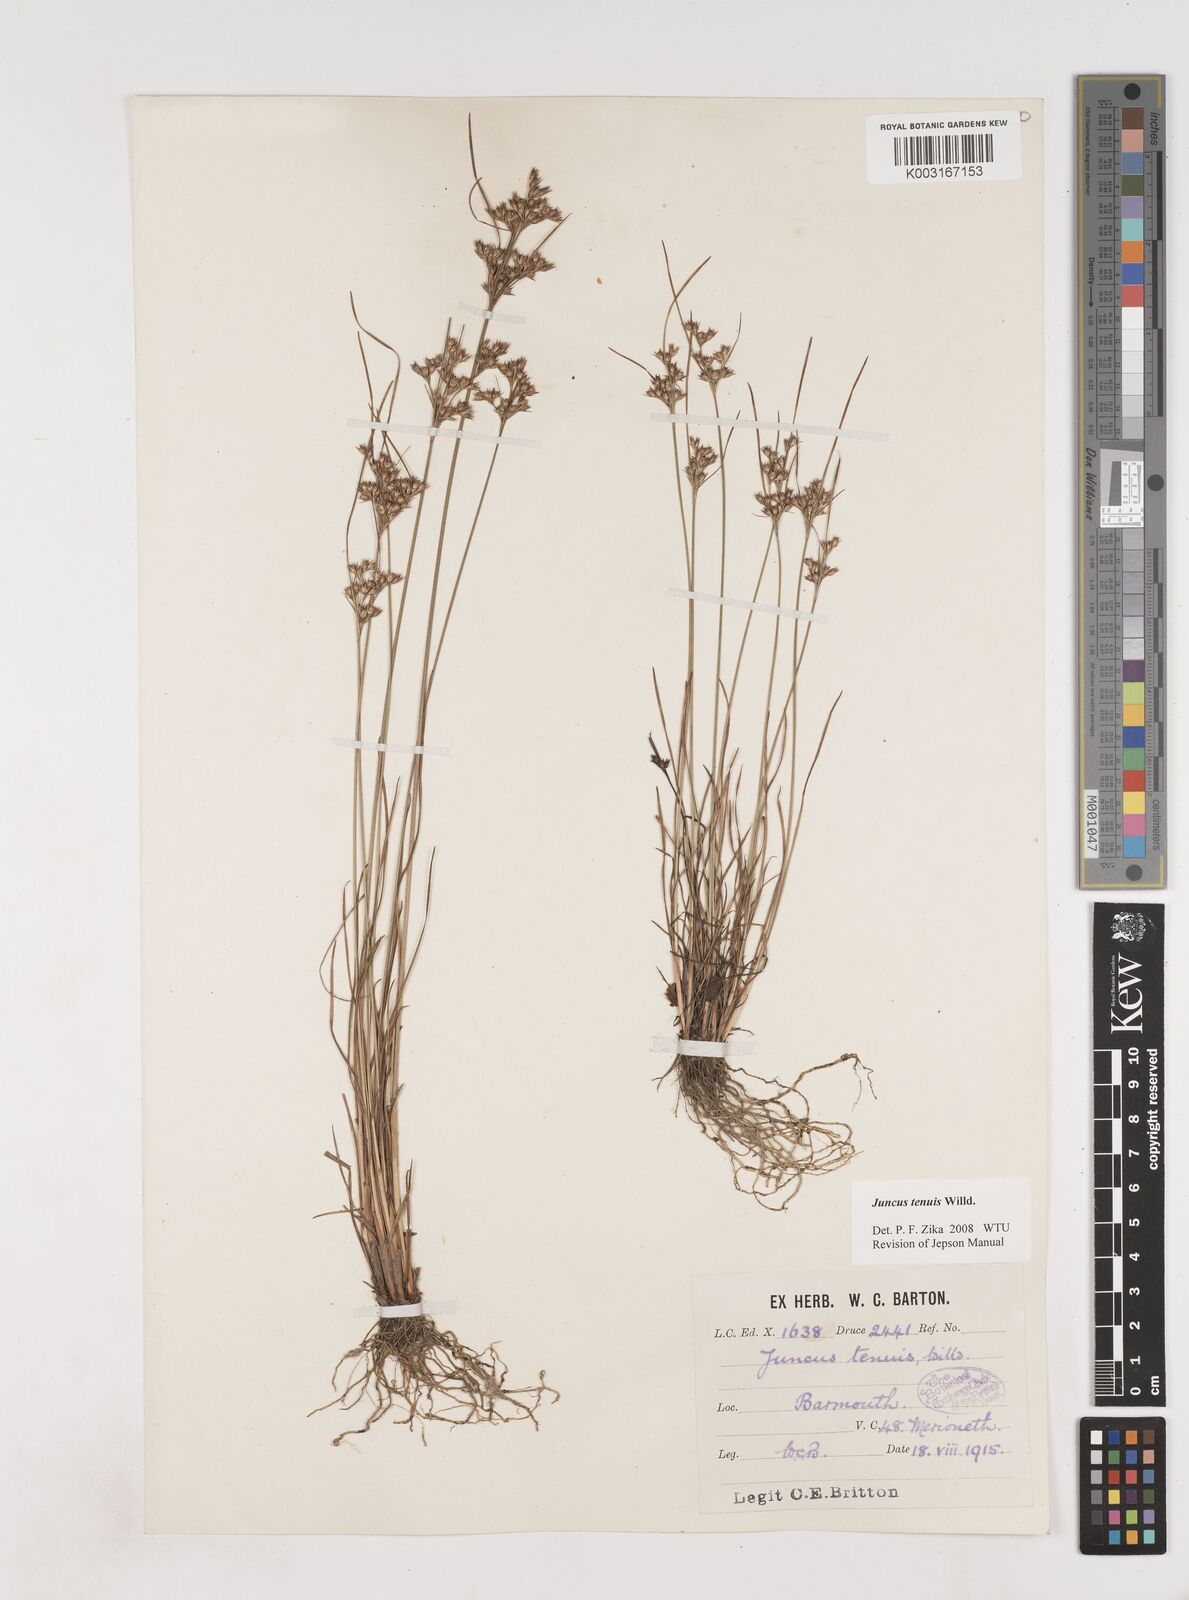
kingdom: Plantae
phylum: Tracheophyta
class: Liliopsida
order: Poales
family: Juncaceae
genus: Juncus
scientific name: Juncus tenuis
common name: Slender rush
